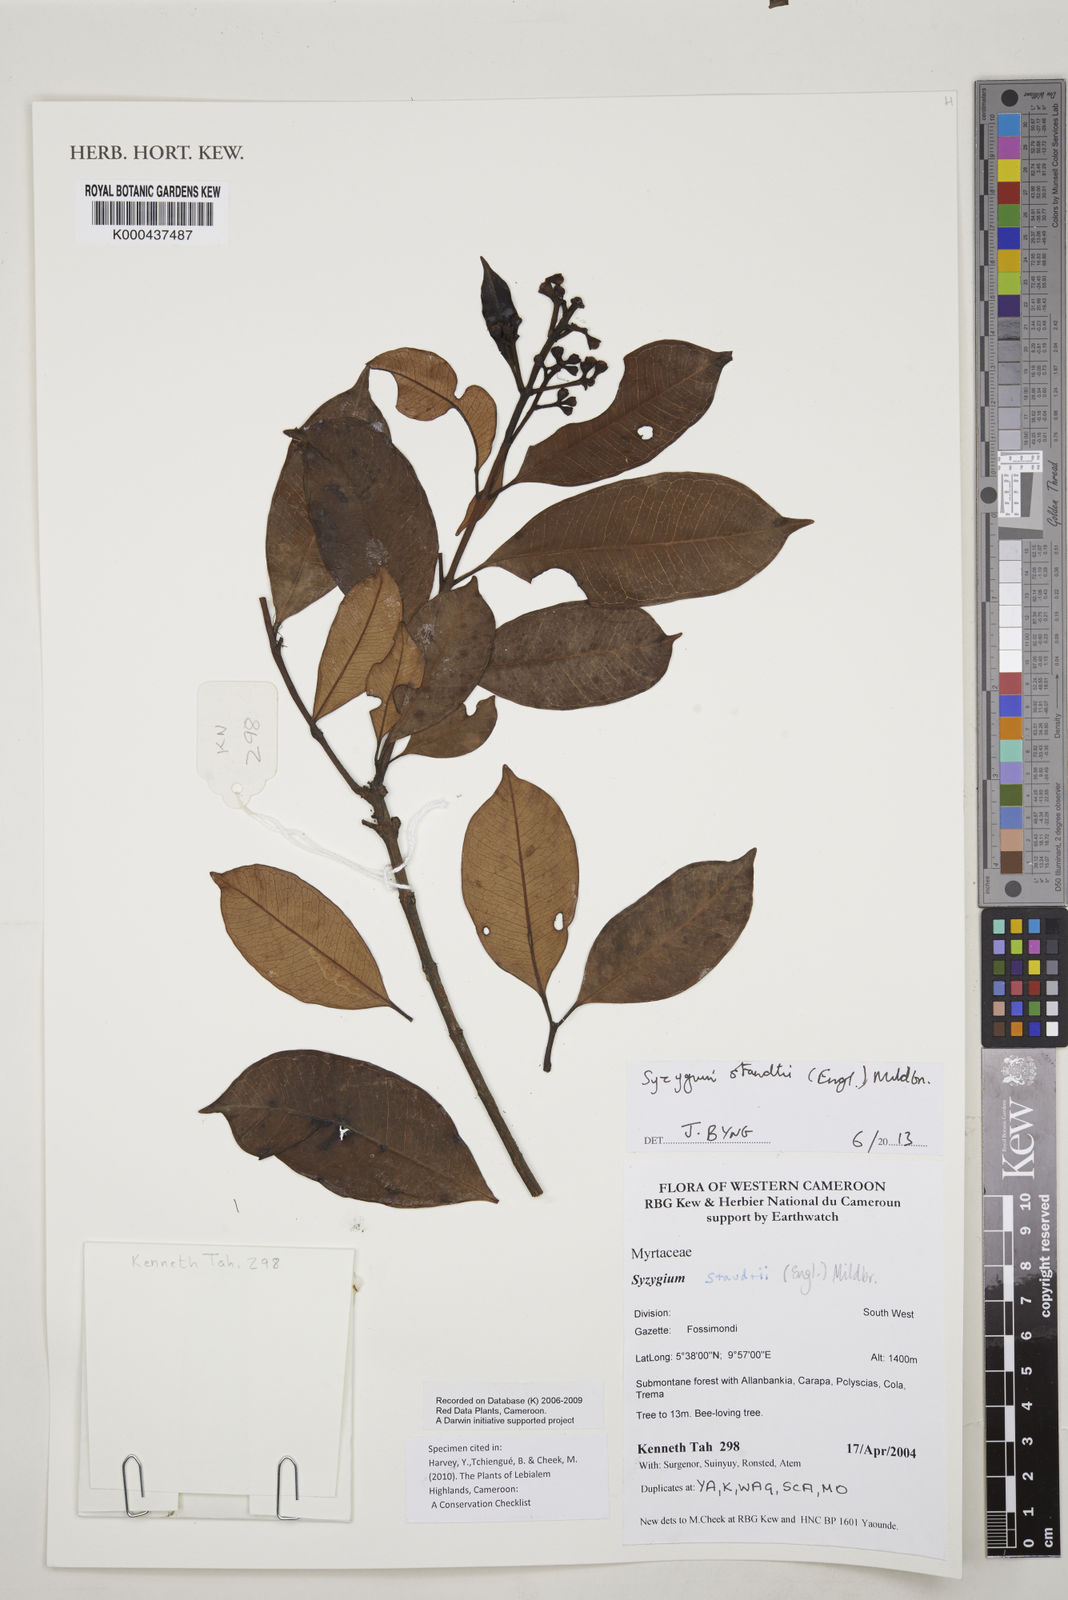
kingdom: Plantae
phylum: Tracheophyta
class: Magnoliopsida
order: Myrtales
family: Myrtaceae
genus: Syzygium
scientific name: Syzygium staudtii
